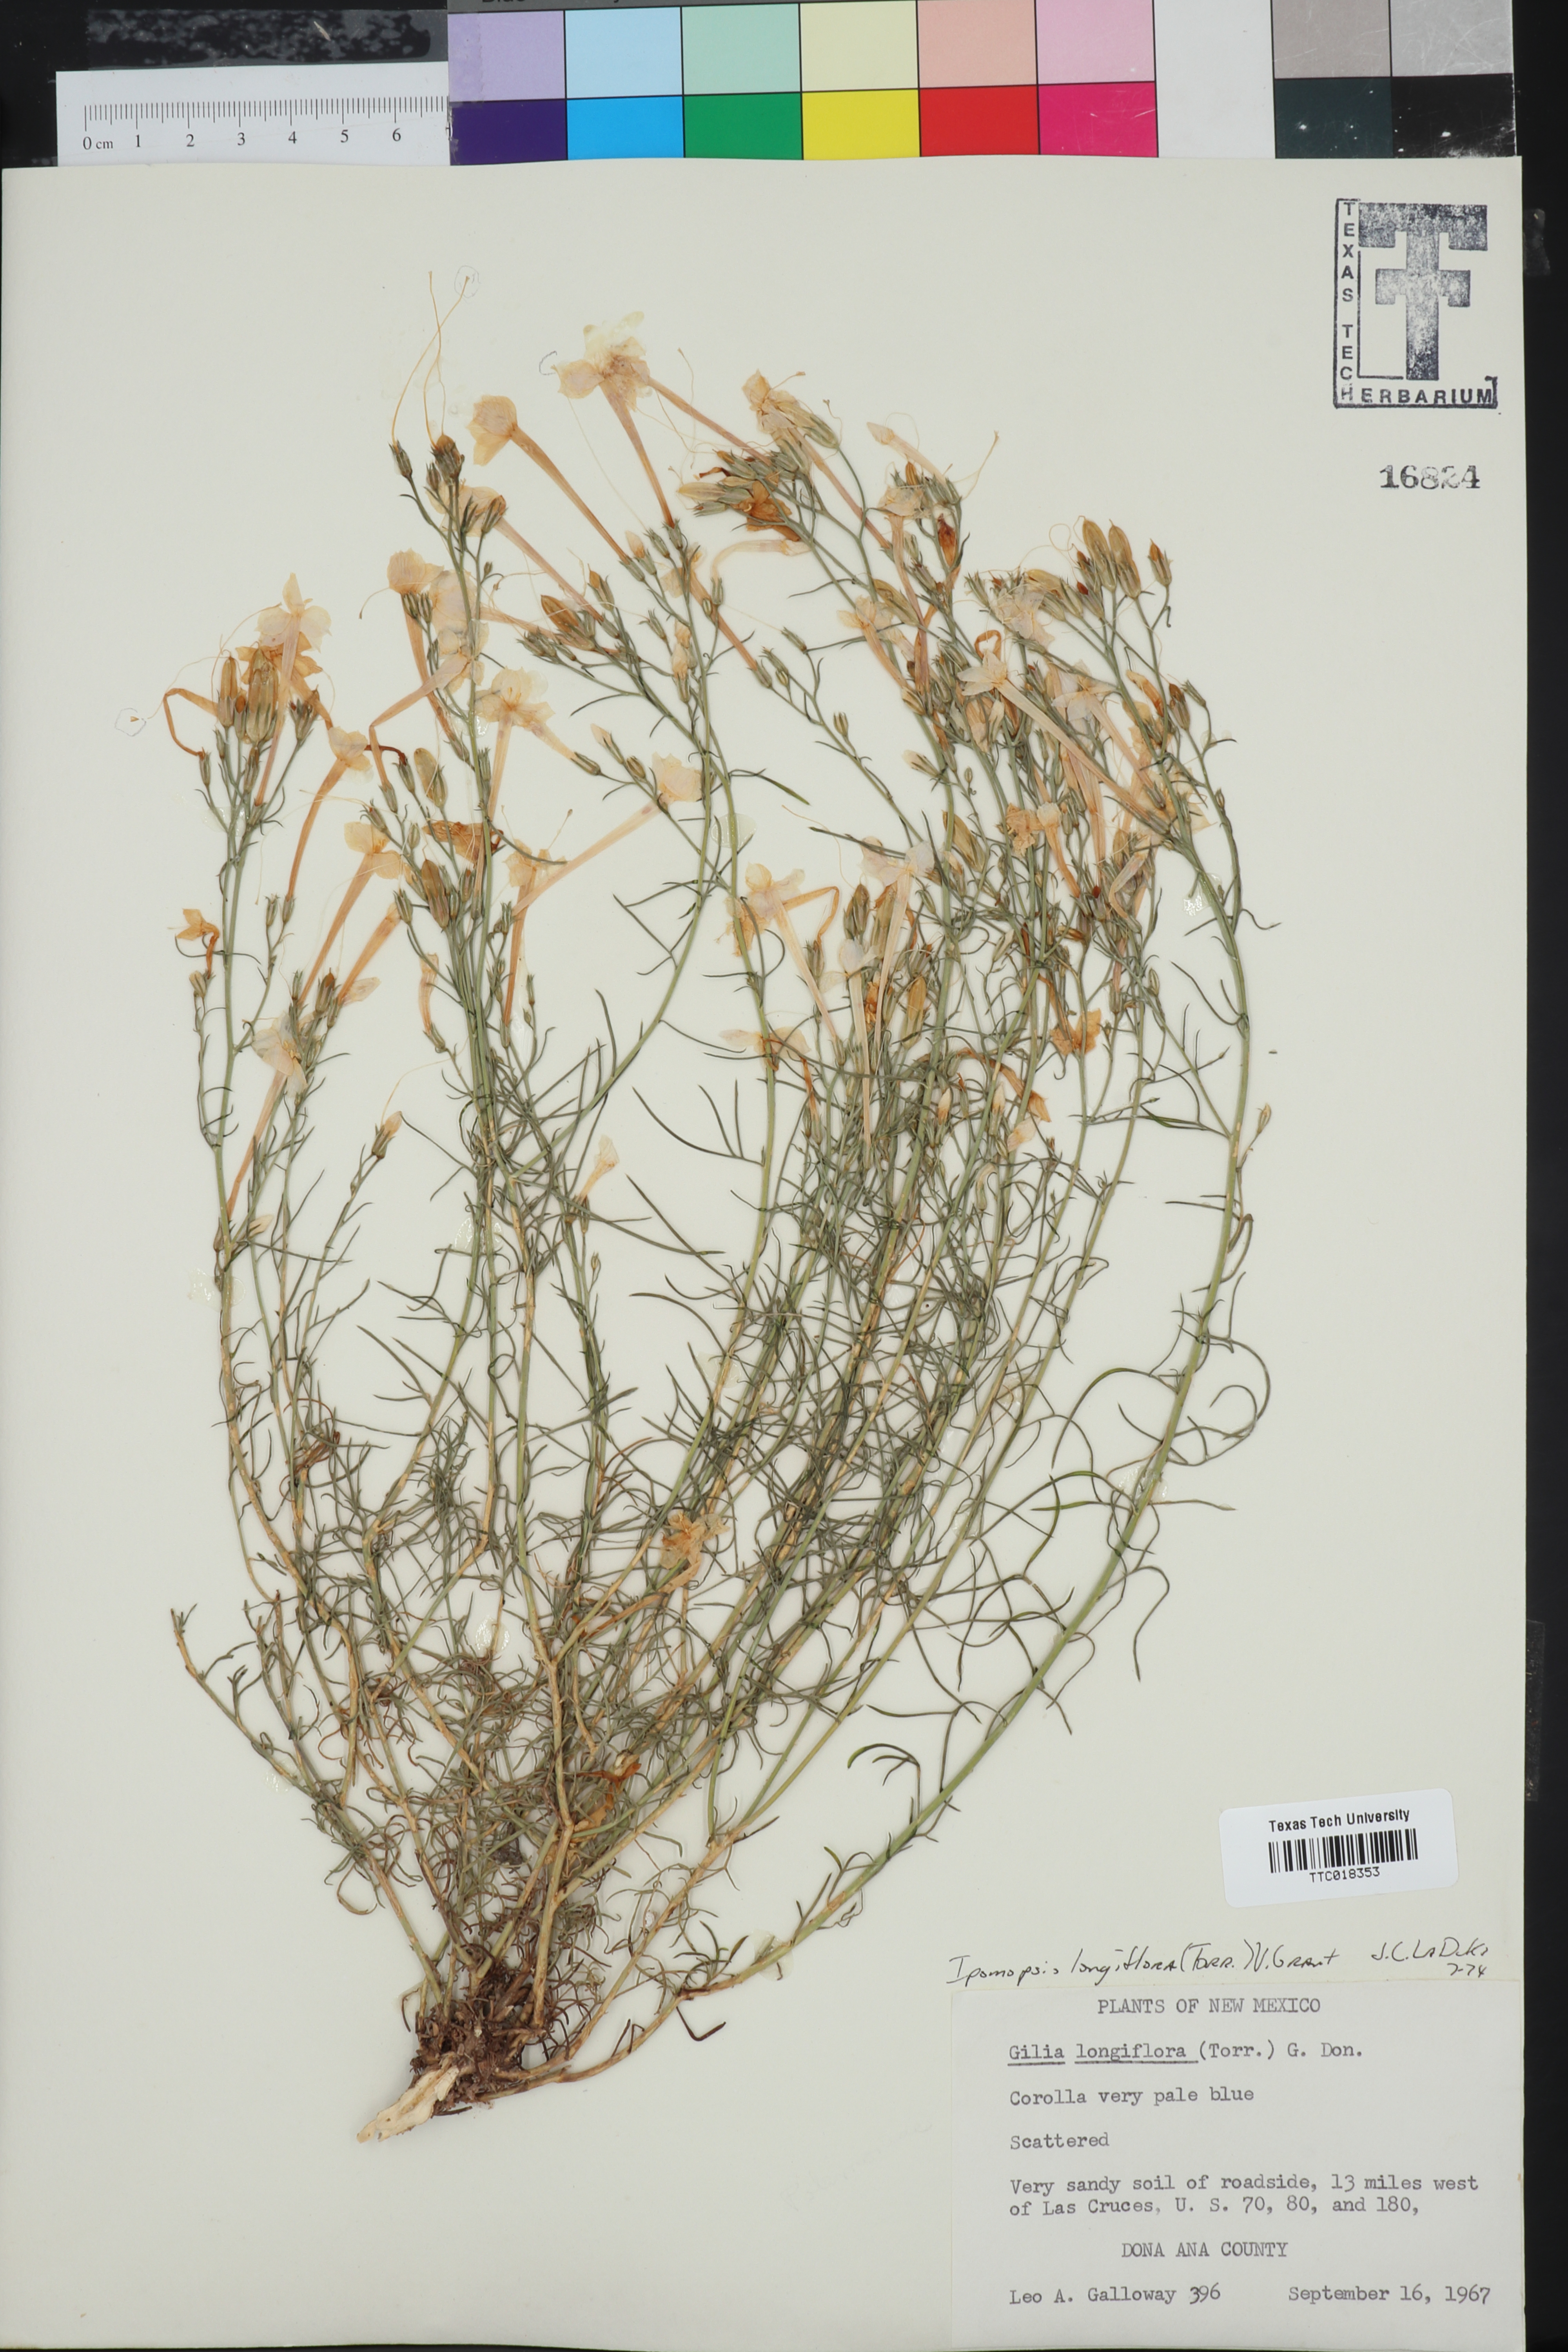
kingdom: Plantae
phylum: Tracheophyta
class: Magnoliopsida
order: Ericales
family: Polemoniaceae
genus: Ipomopsis
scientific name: Ipomopsis longiflora
